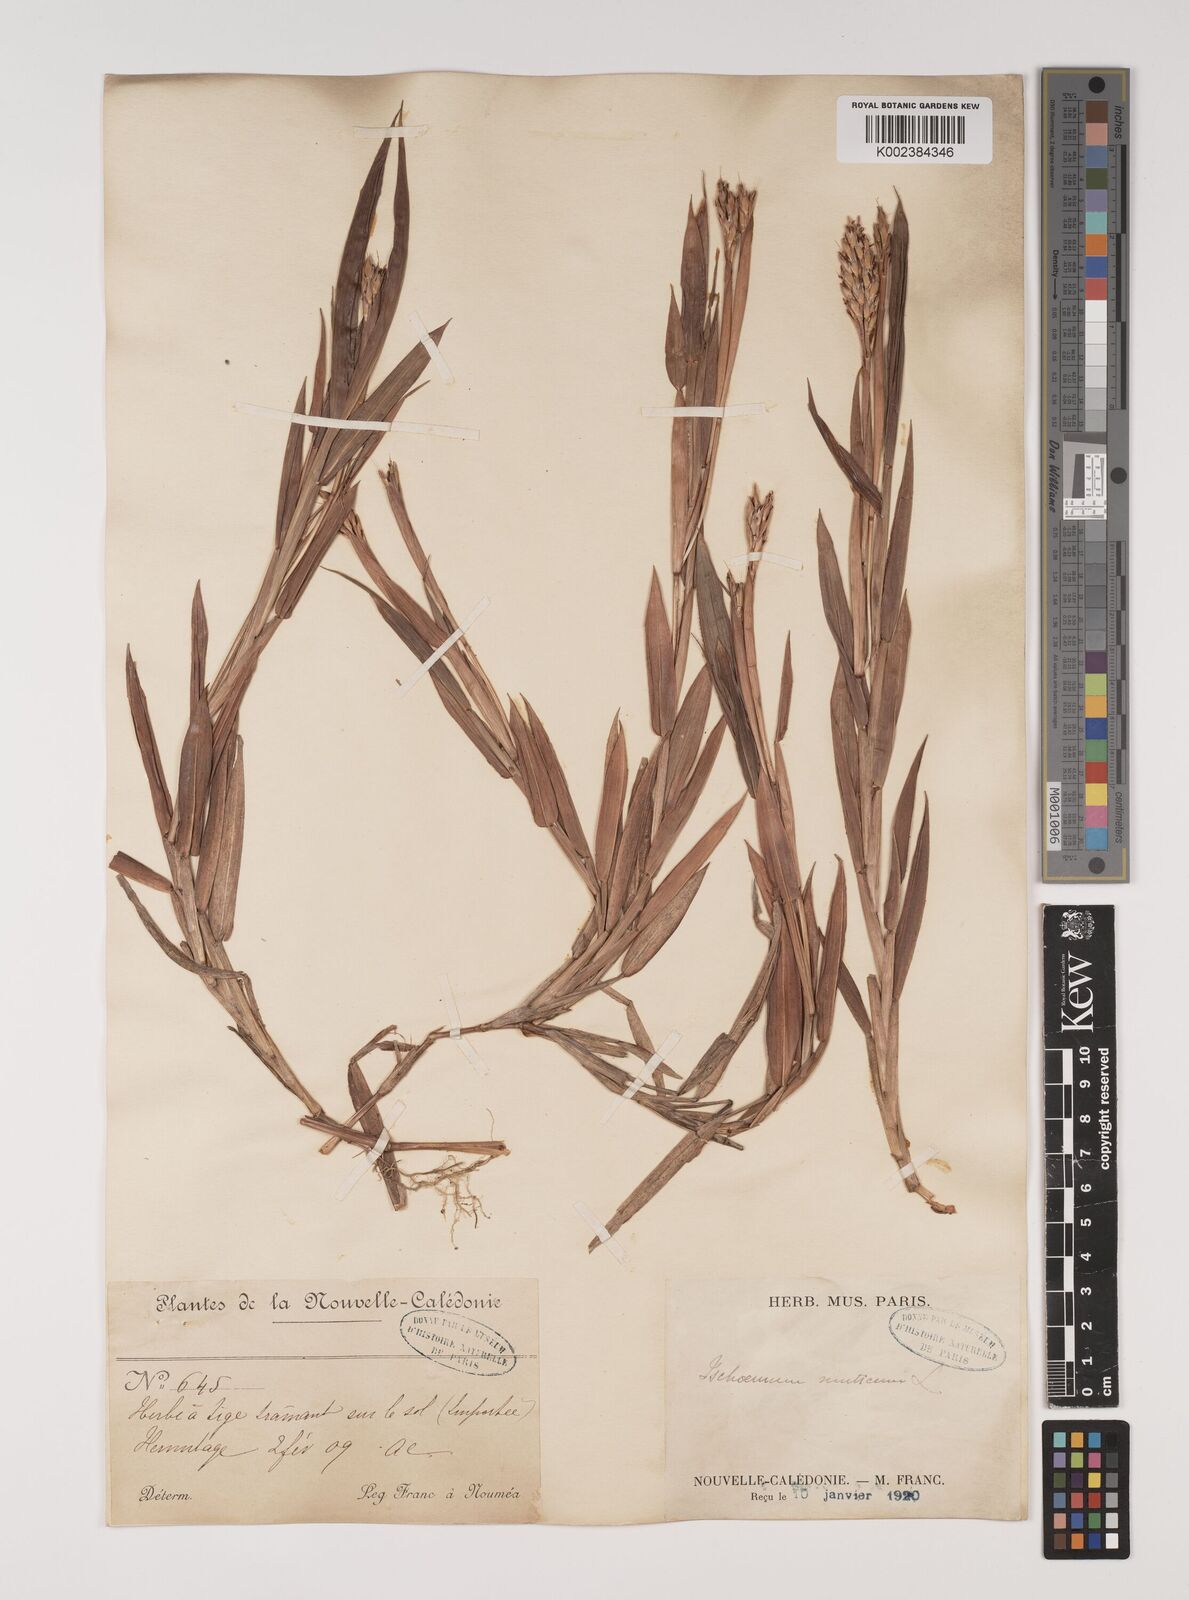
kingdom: Plantae
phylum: Tracheophyta
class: Liliopsida
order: Poales
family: Poaceae
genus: Ischaemum
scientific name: Ischaemum muticum
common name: Drought grass
